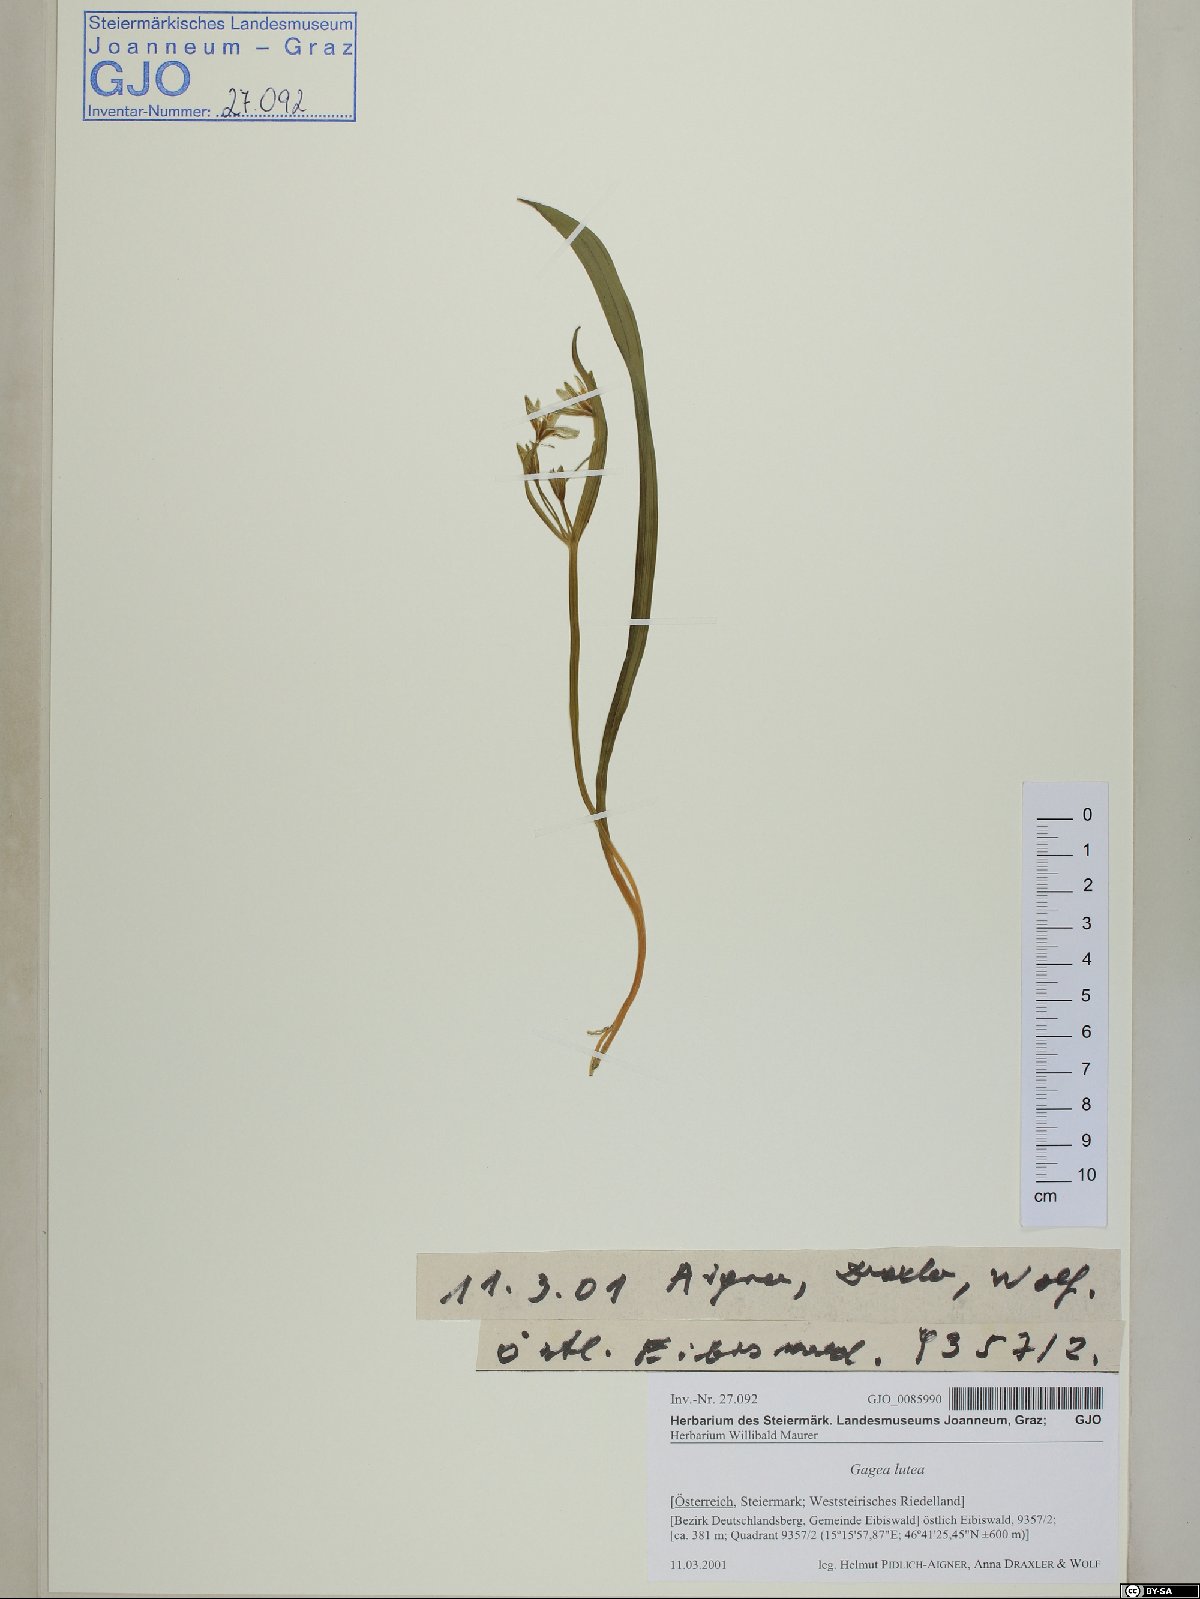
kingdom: Plantae
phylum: Tracheophyta
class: Liliopsida
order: Liliales
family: Liliaceae
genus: Gagea
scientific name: Gagea lutea
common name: Yellow star-of-bethlehem
